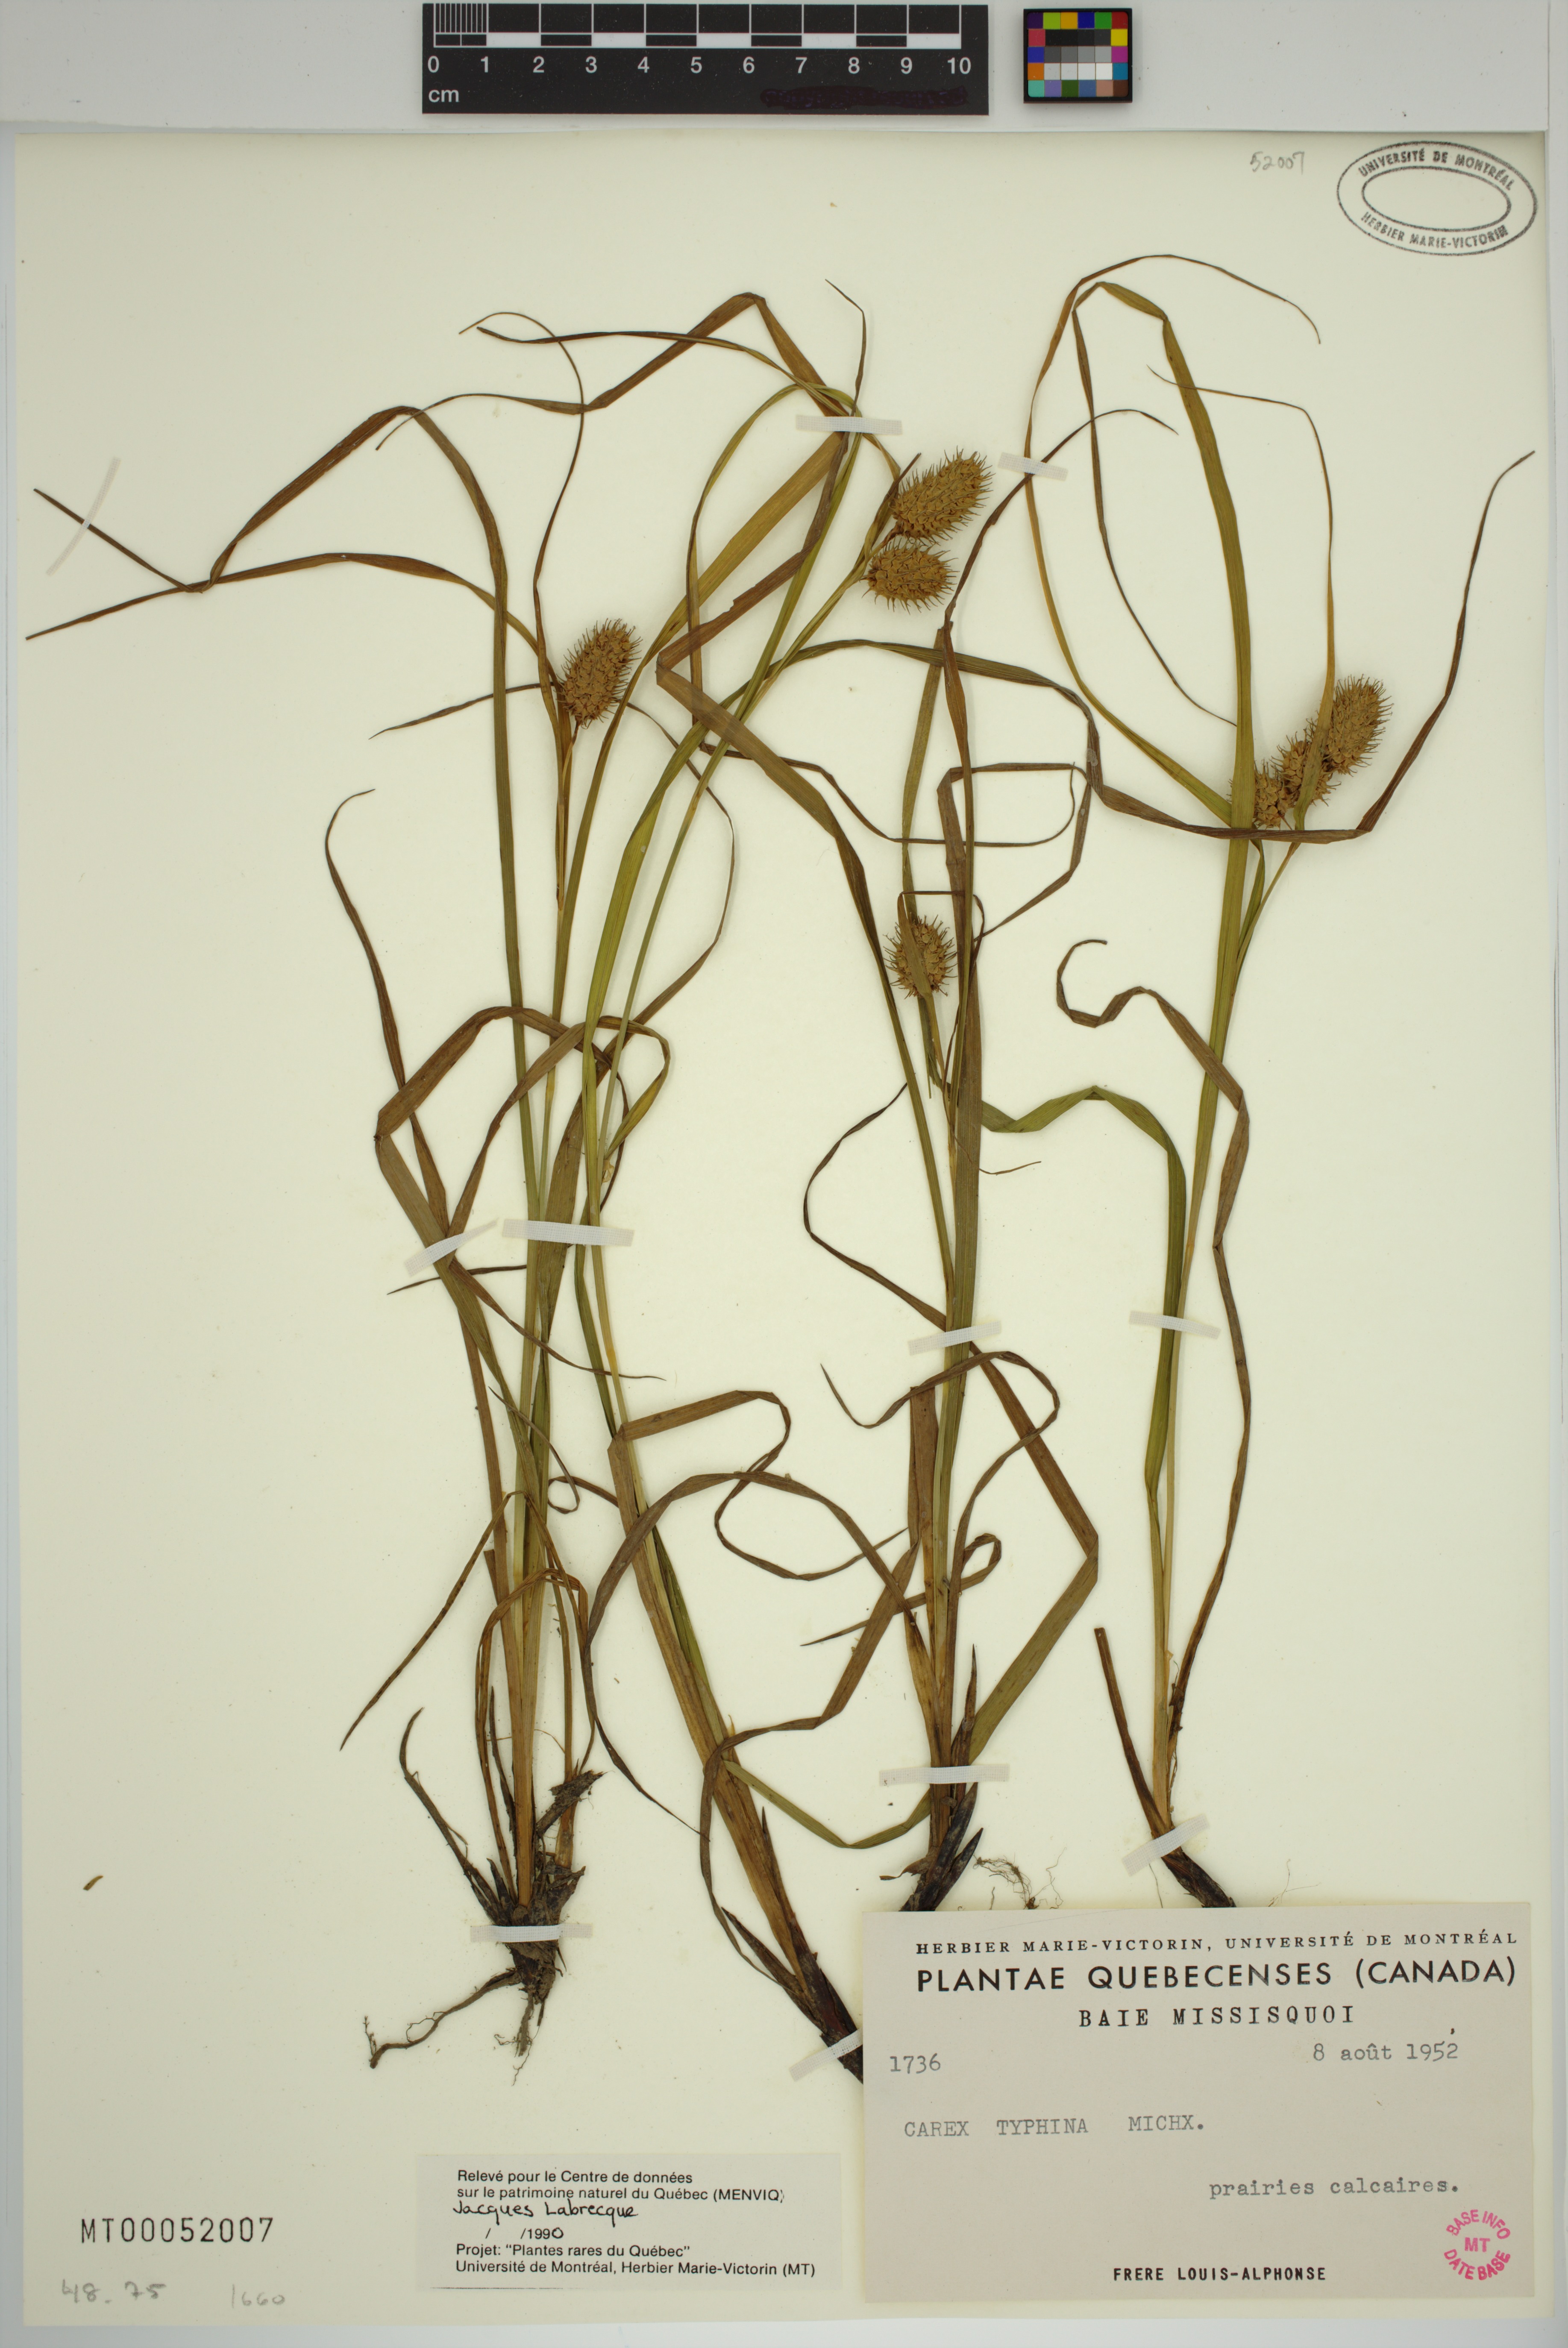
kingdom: Plantae
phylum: Tracheophyta
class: Liliopsida
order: Poales
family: Cyperaceae
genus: Carex
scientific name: Carex typhina
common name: Cattail sedge
